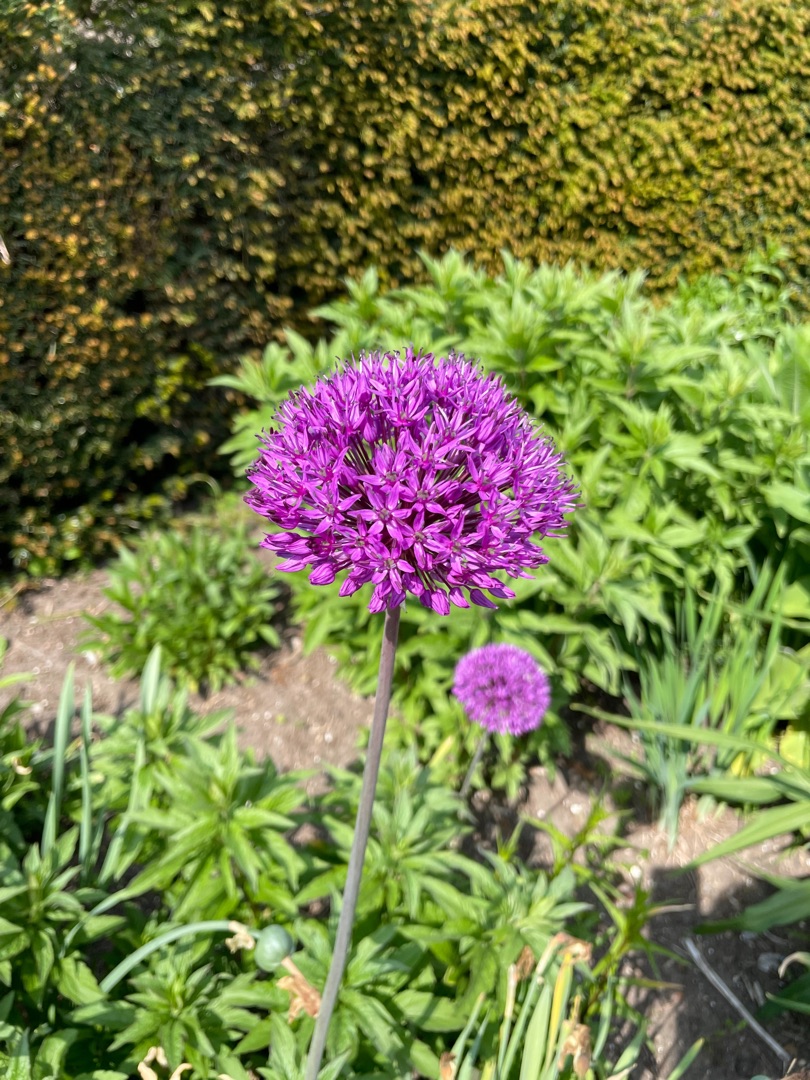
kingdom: Plantae
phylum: Tracheophyta
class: Liliopsida
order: Asparagales
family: Amaryllidaceae
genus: Allium
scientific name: Allium hollandicum
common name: Kirgisisk pryd-løg
